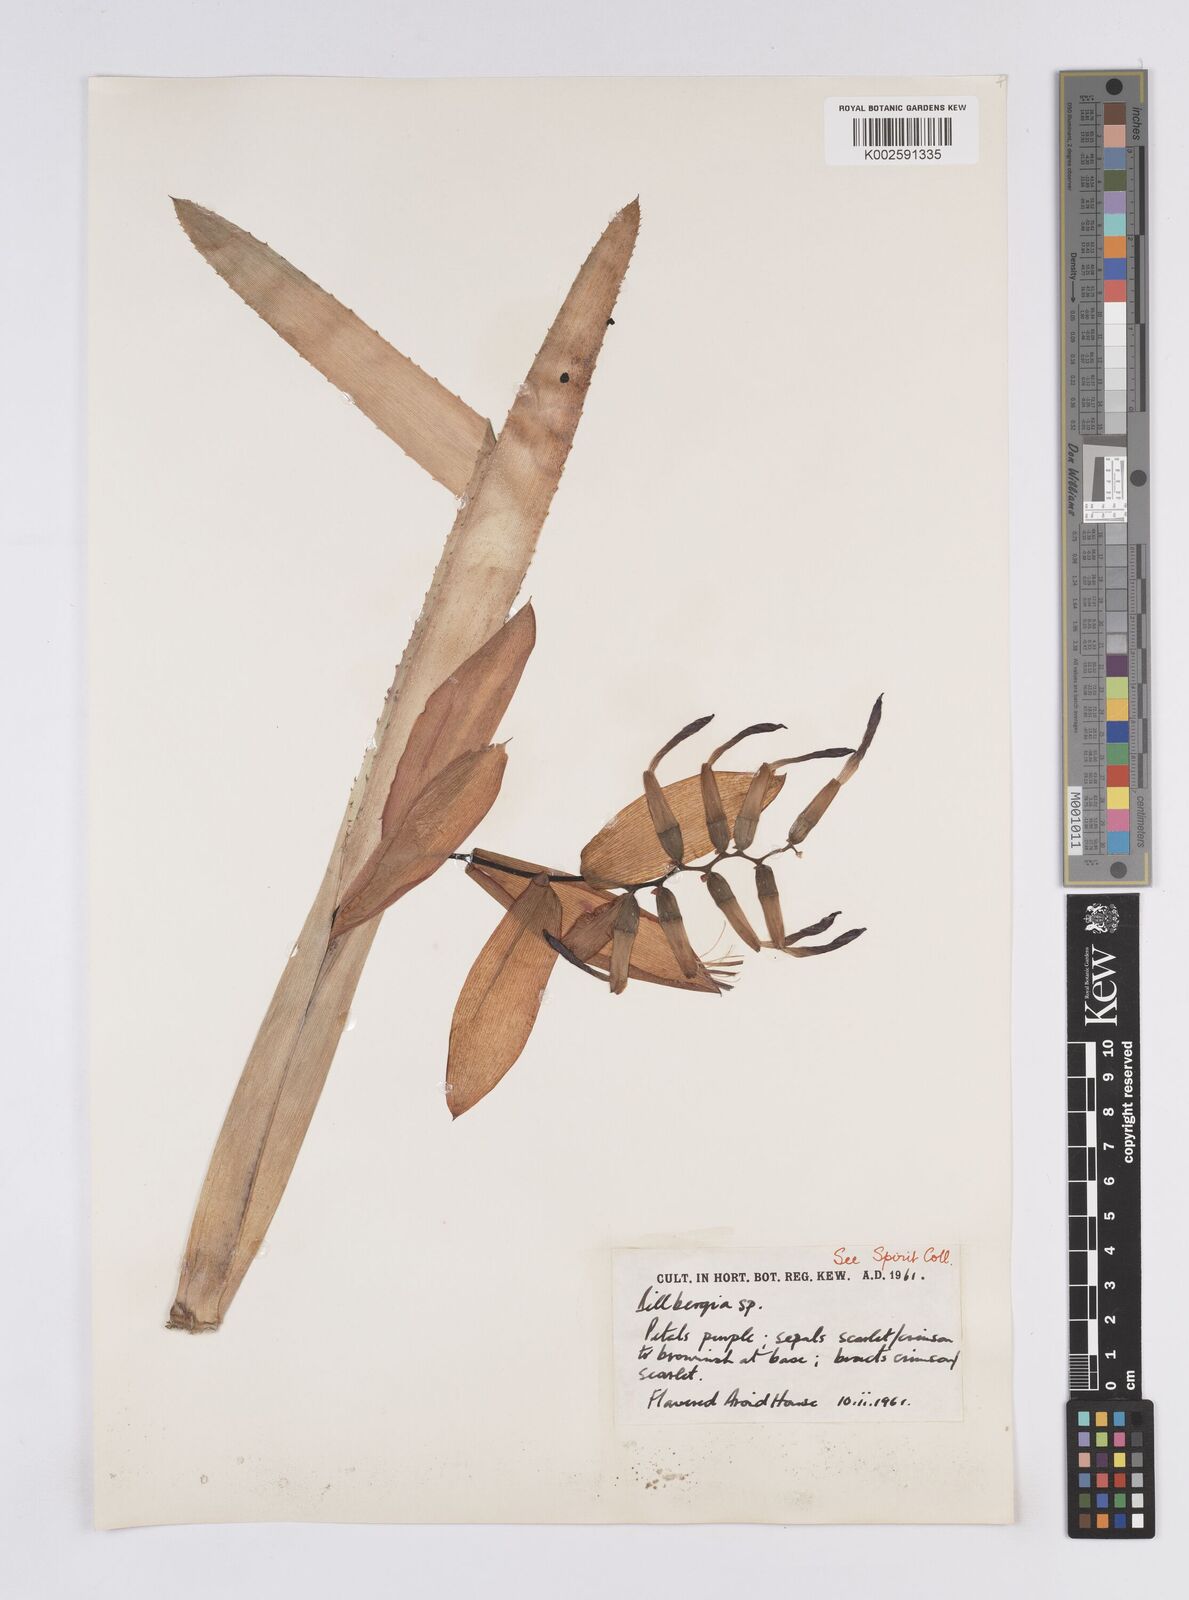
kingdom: Plantae
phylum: Tracheophyta
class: Liliopsida
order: Poales
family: Bromeliaceae
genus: Billbergia
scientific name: Billbergia
